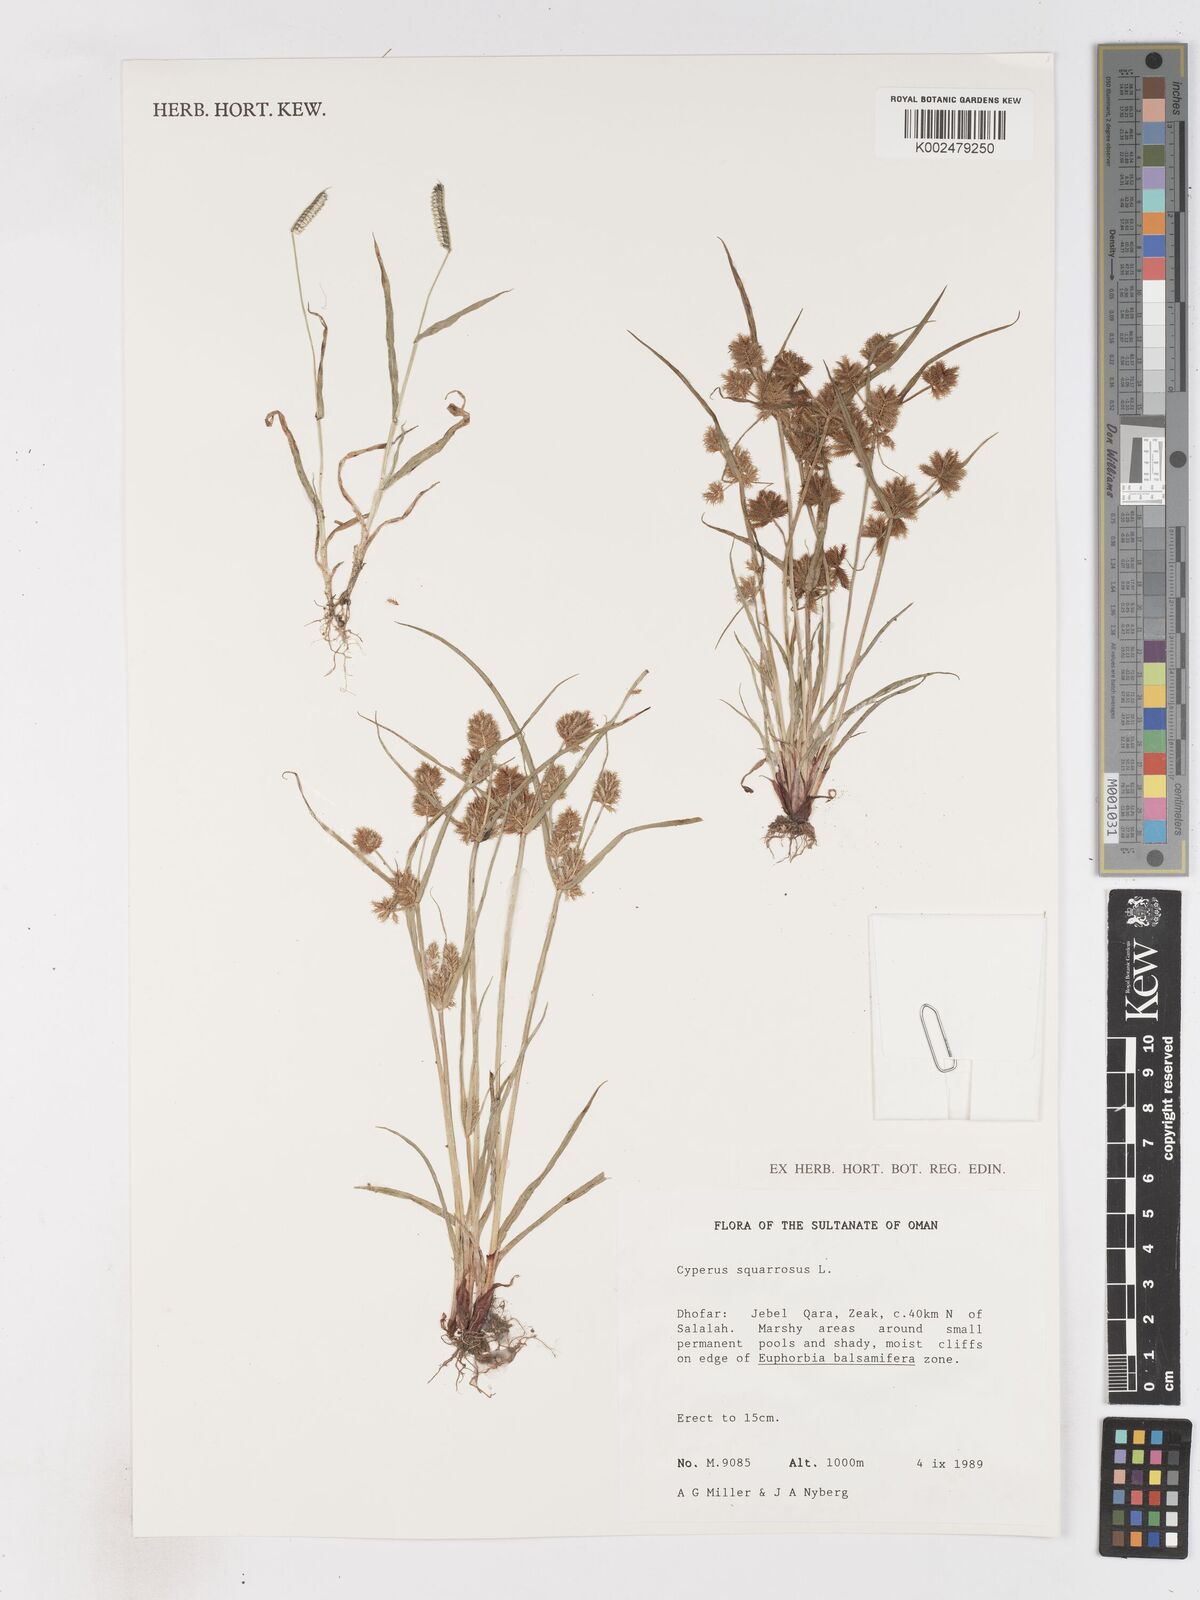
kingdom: Plantae
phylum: Tracheophyta
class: Liliopsida
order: Poales
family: Cyperaceae
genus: Cyperus
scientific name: Cyperus squarrosus
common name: Awned cyperus
